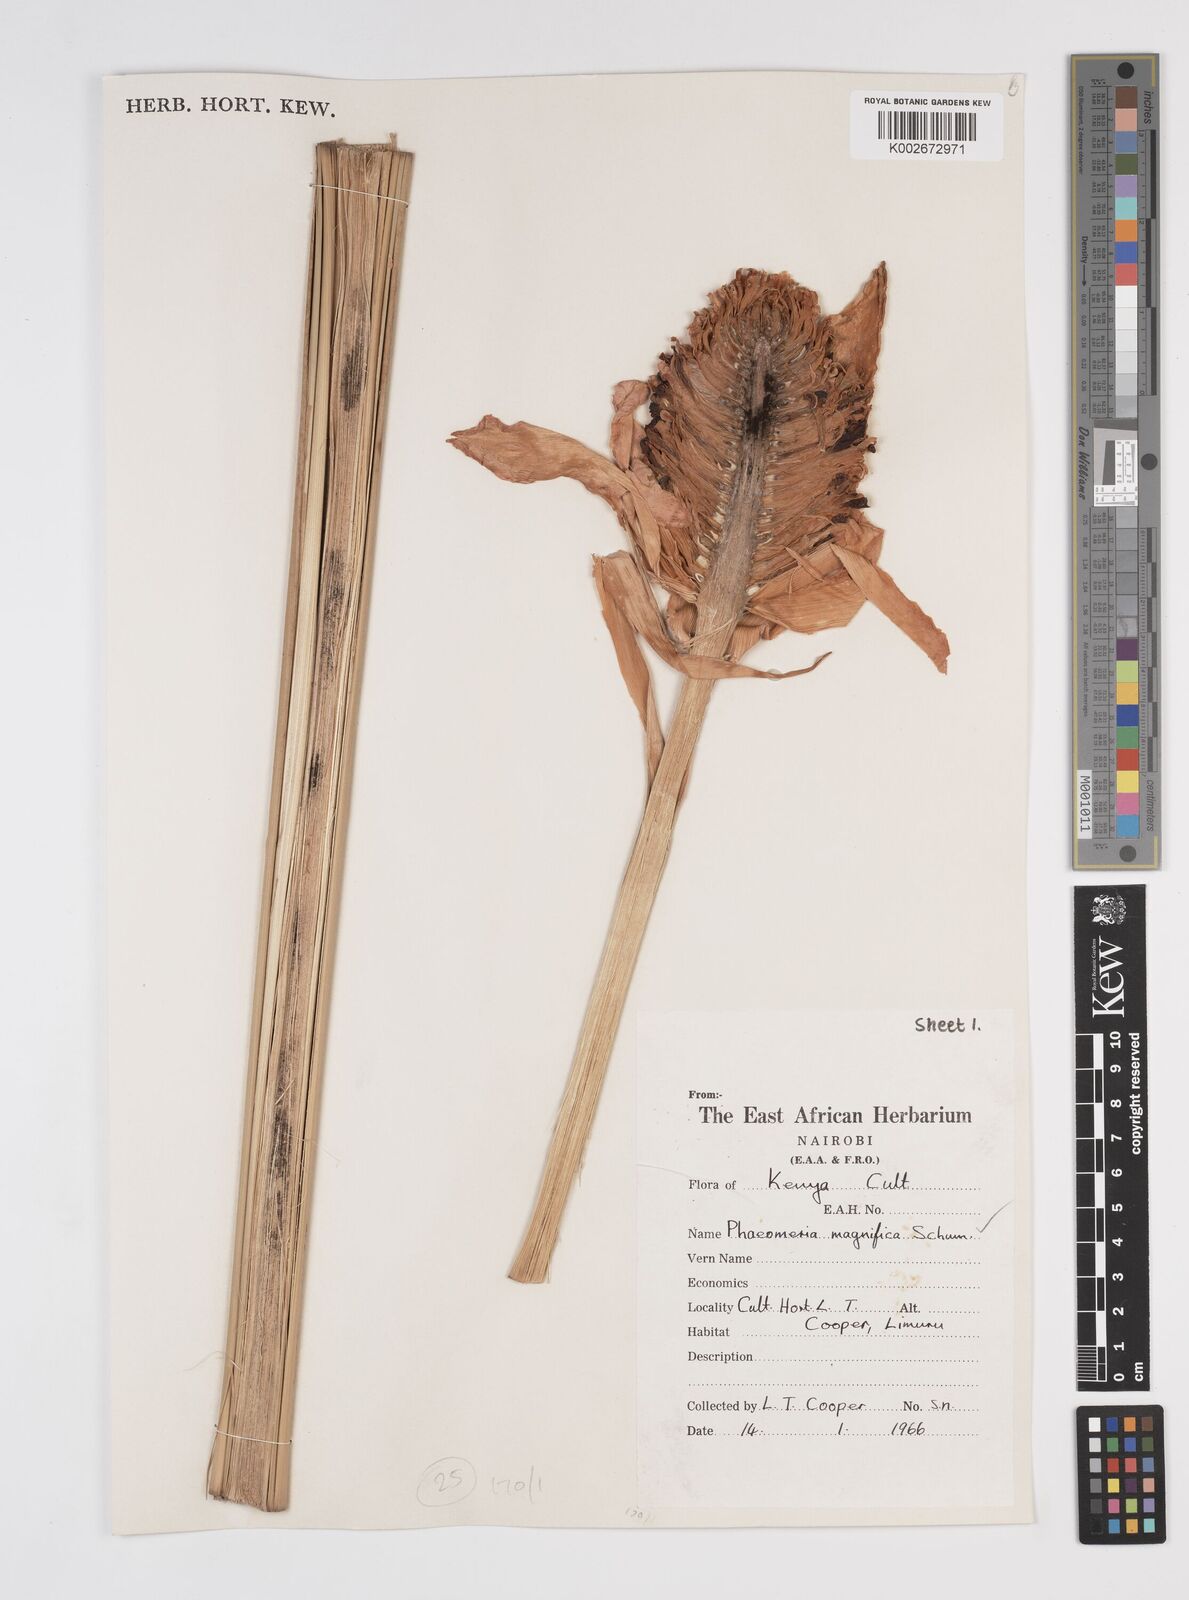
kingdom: Plantae
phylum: Tracheophyta
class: Liliopsida
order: Zingiberales
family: Zingiberaceae
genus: Etlingera
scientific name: Etlingera elatior
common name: Philippine waxflower
